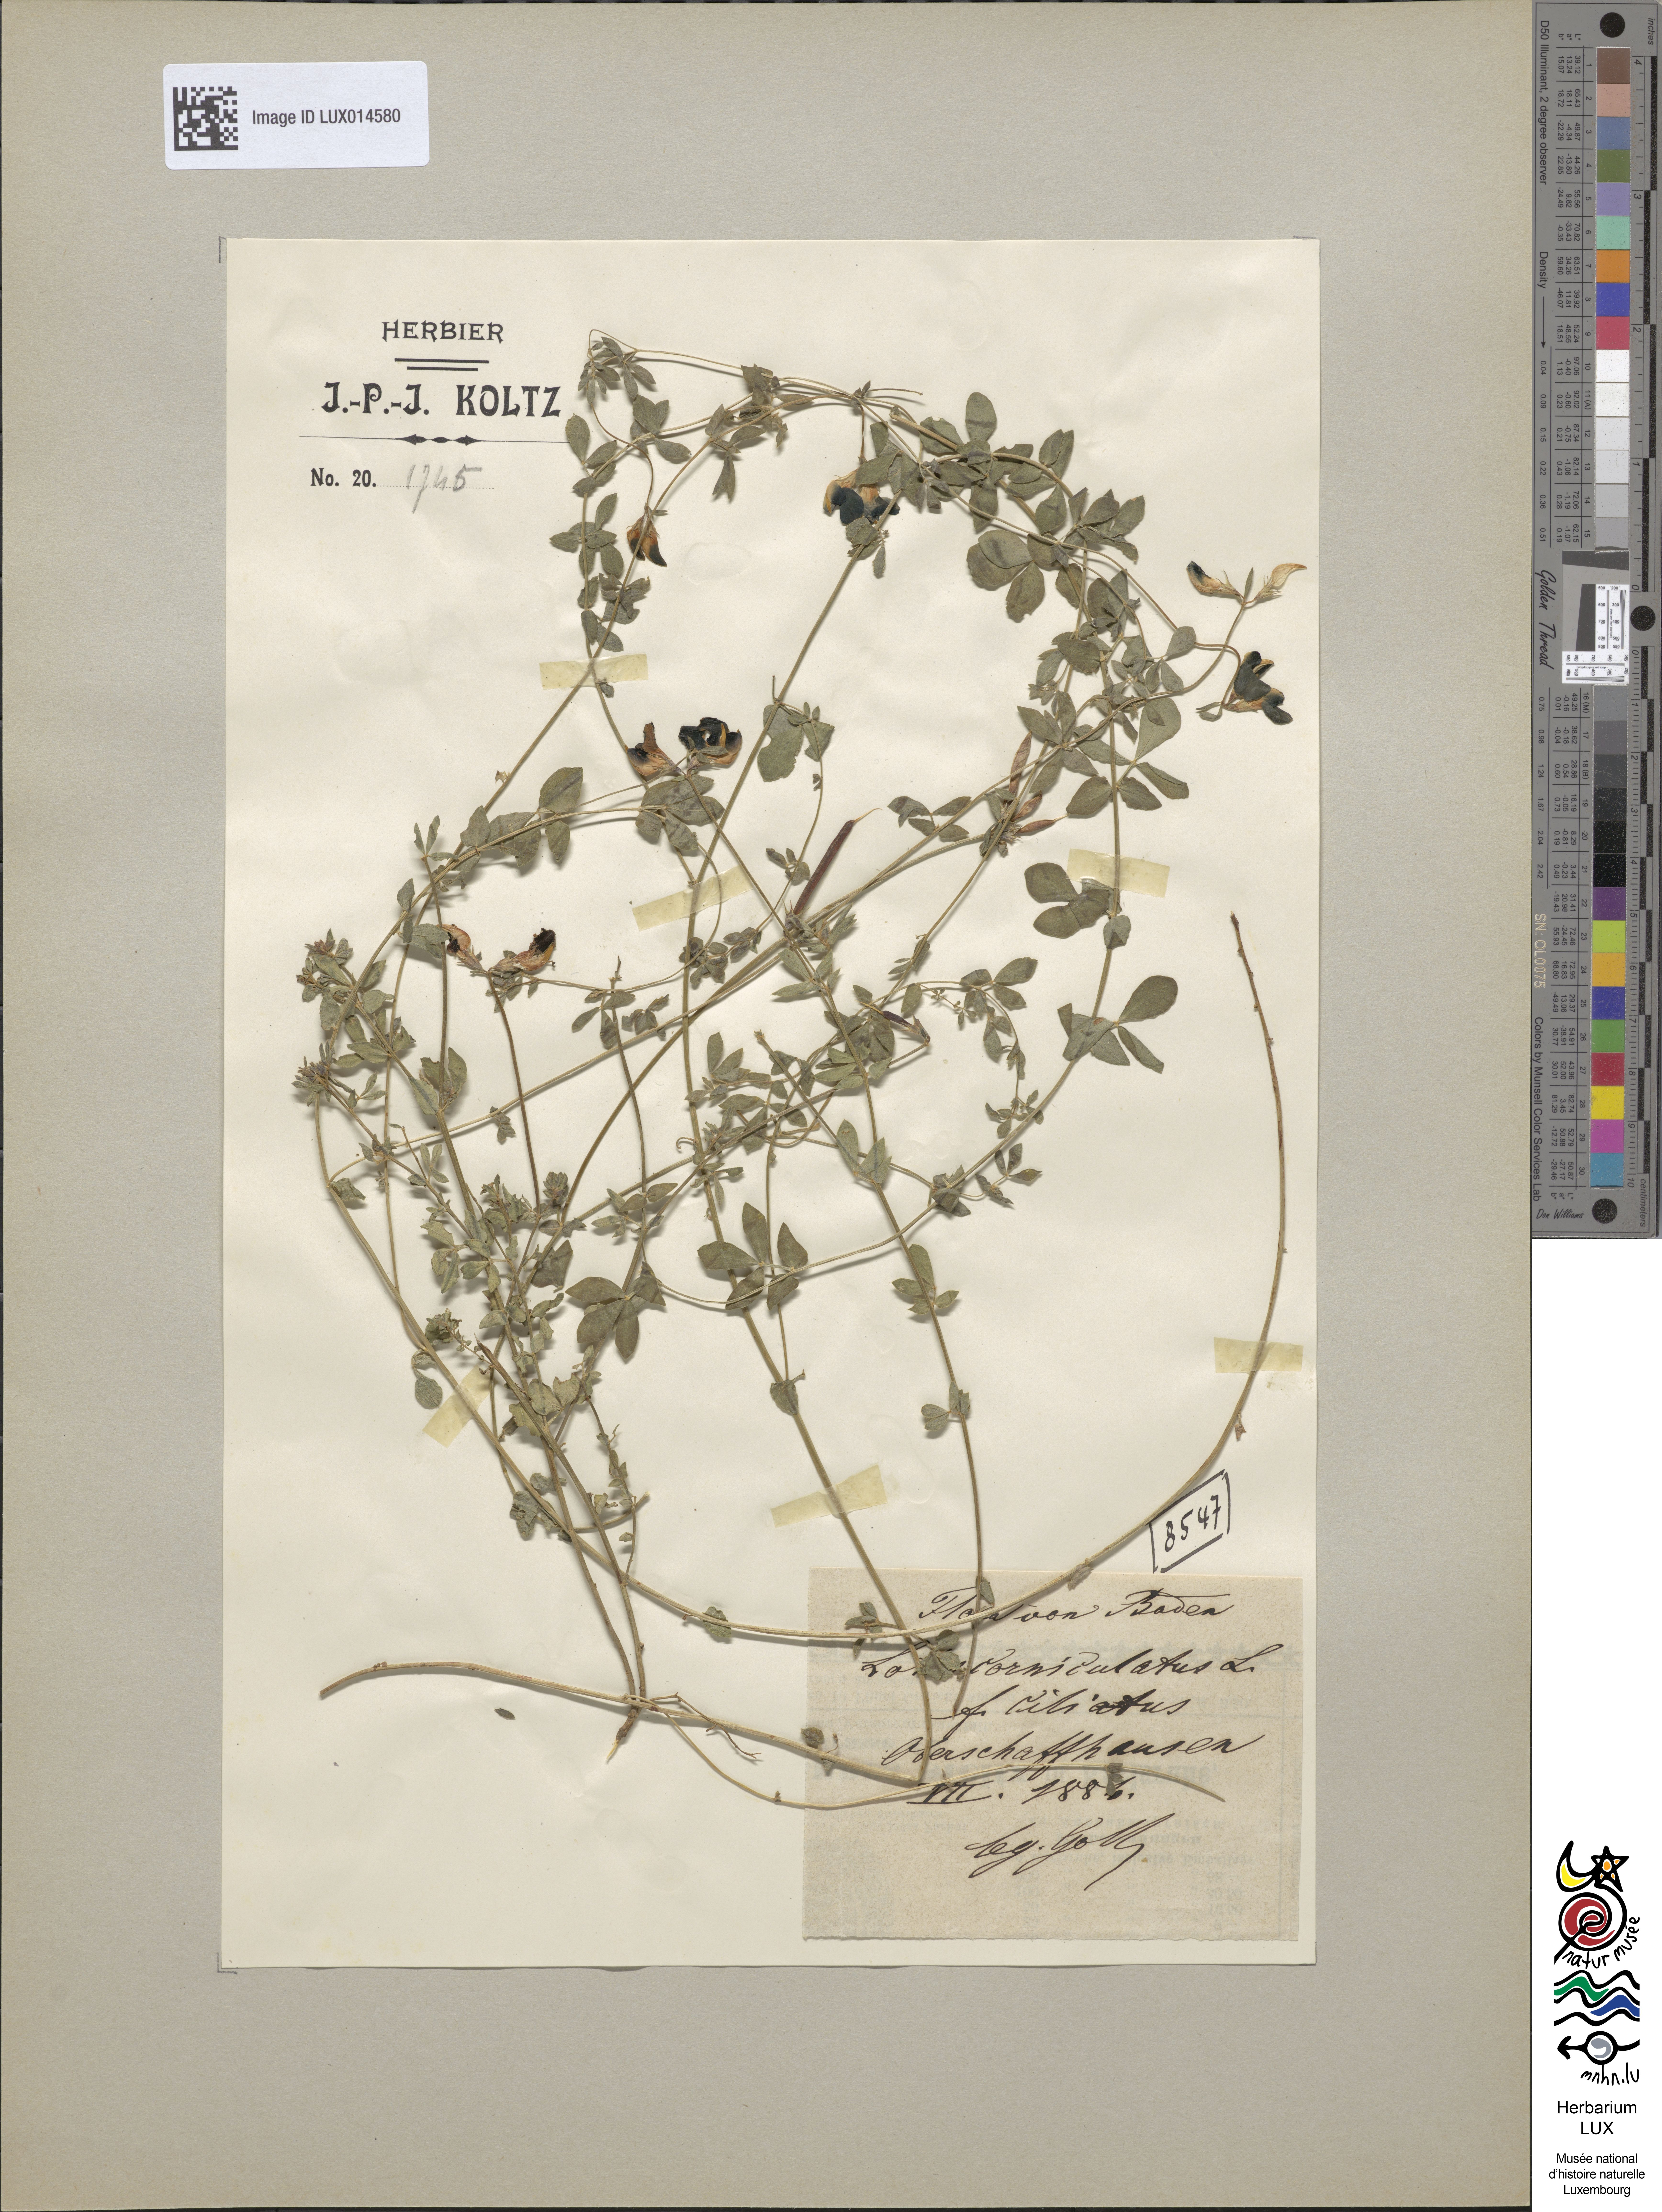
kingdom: Plantae
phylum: Tracheophyta
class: Magnoliopsida
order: Fabales
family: Fabaceae
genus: Lotus
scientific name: Lotus corniculatus
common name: Common bird's-foot-trefoil
